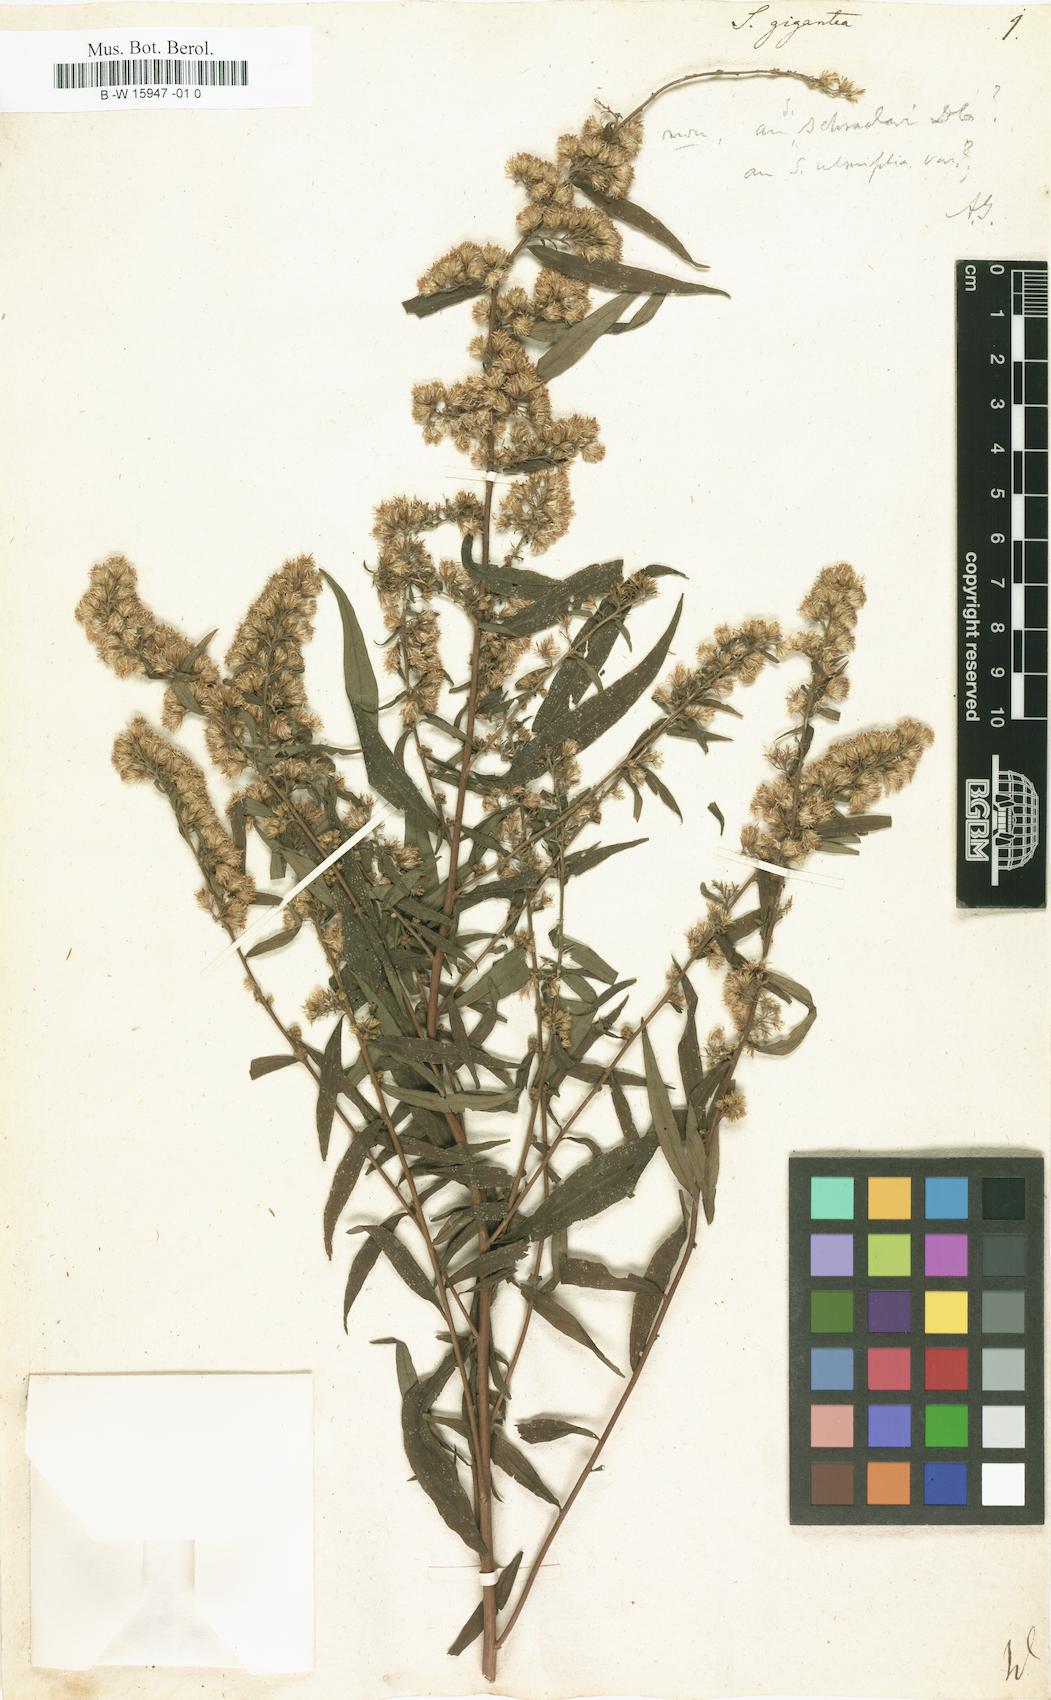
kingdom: Plantae
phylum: Tracheophyta
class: Magnoliopsida
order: Asterales
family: Asteraceae
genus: Solidago
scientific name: Solidago gigantea
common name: Giant goldenrod
